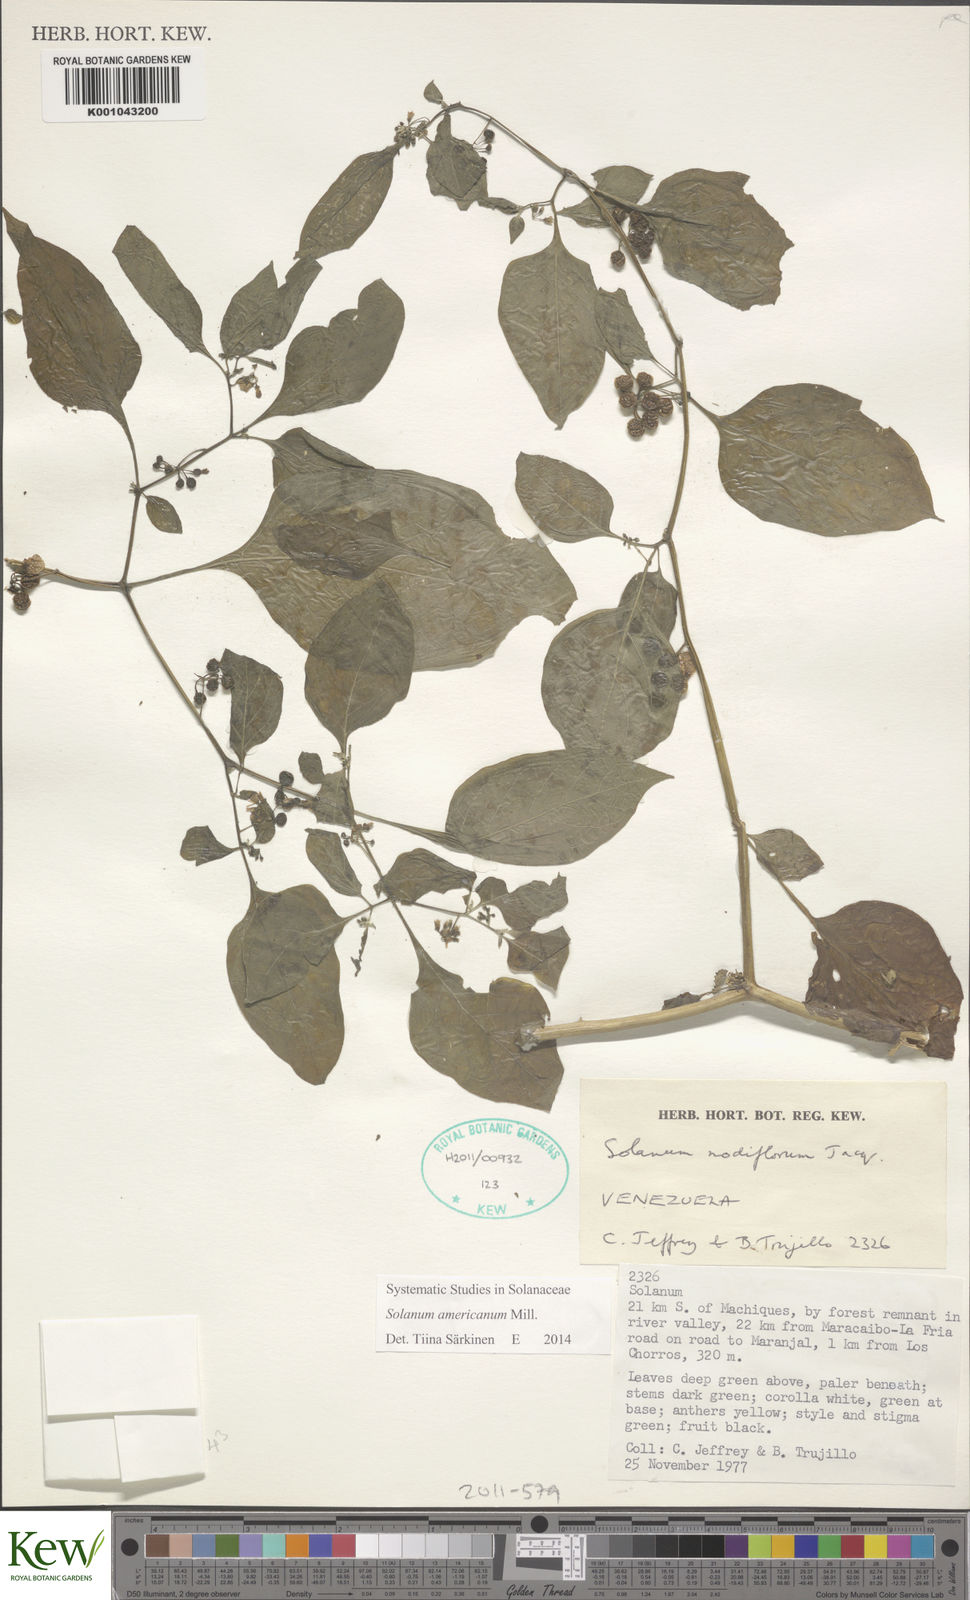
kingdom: Plantae
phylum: Tracheophyta
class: Magnoliopsida
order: Solanales
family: Solanaceae
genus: Solanum
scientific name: Solanum americanum
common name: American black nightshade
